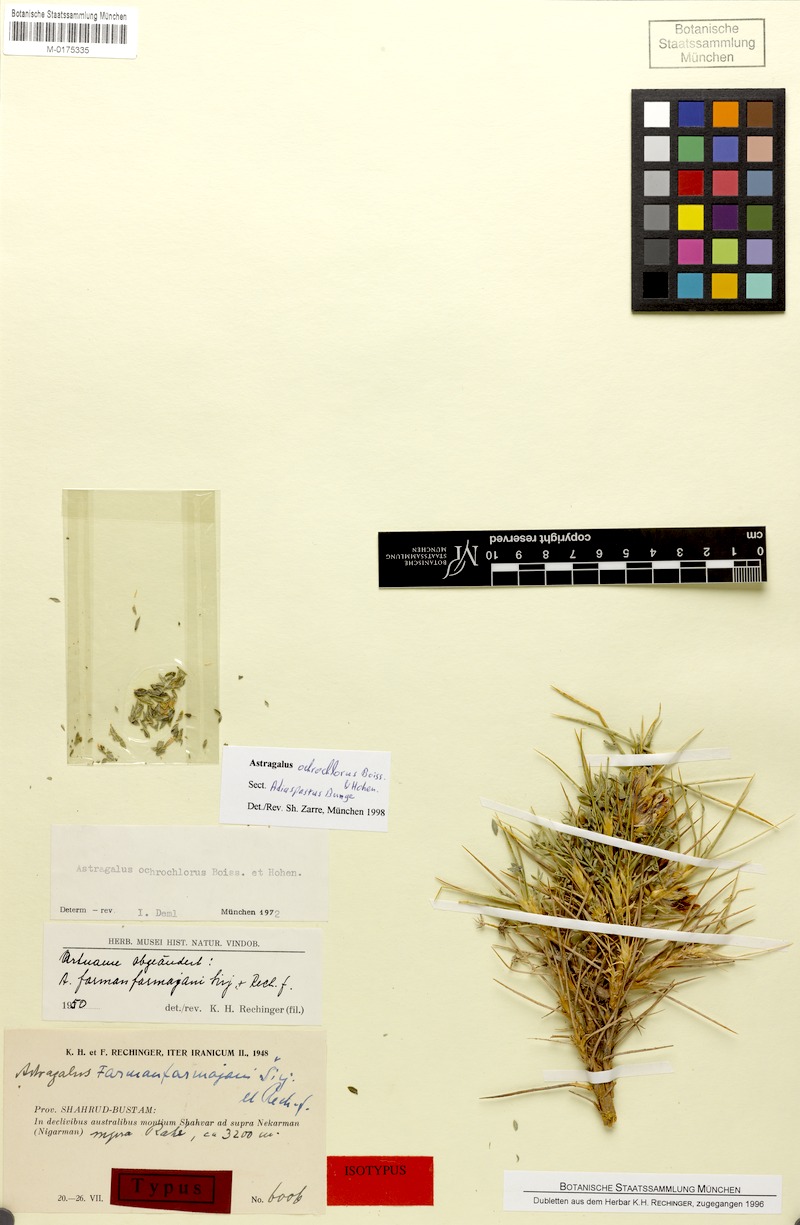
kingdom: Plantae
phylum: Tracheophyta
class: Magnoliopsida
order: Fabales
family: Fabaceae
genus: Astragalus
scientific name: Astragalus ochrochlorus
